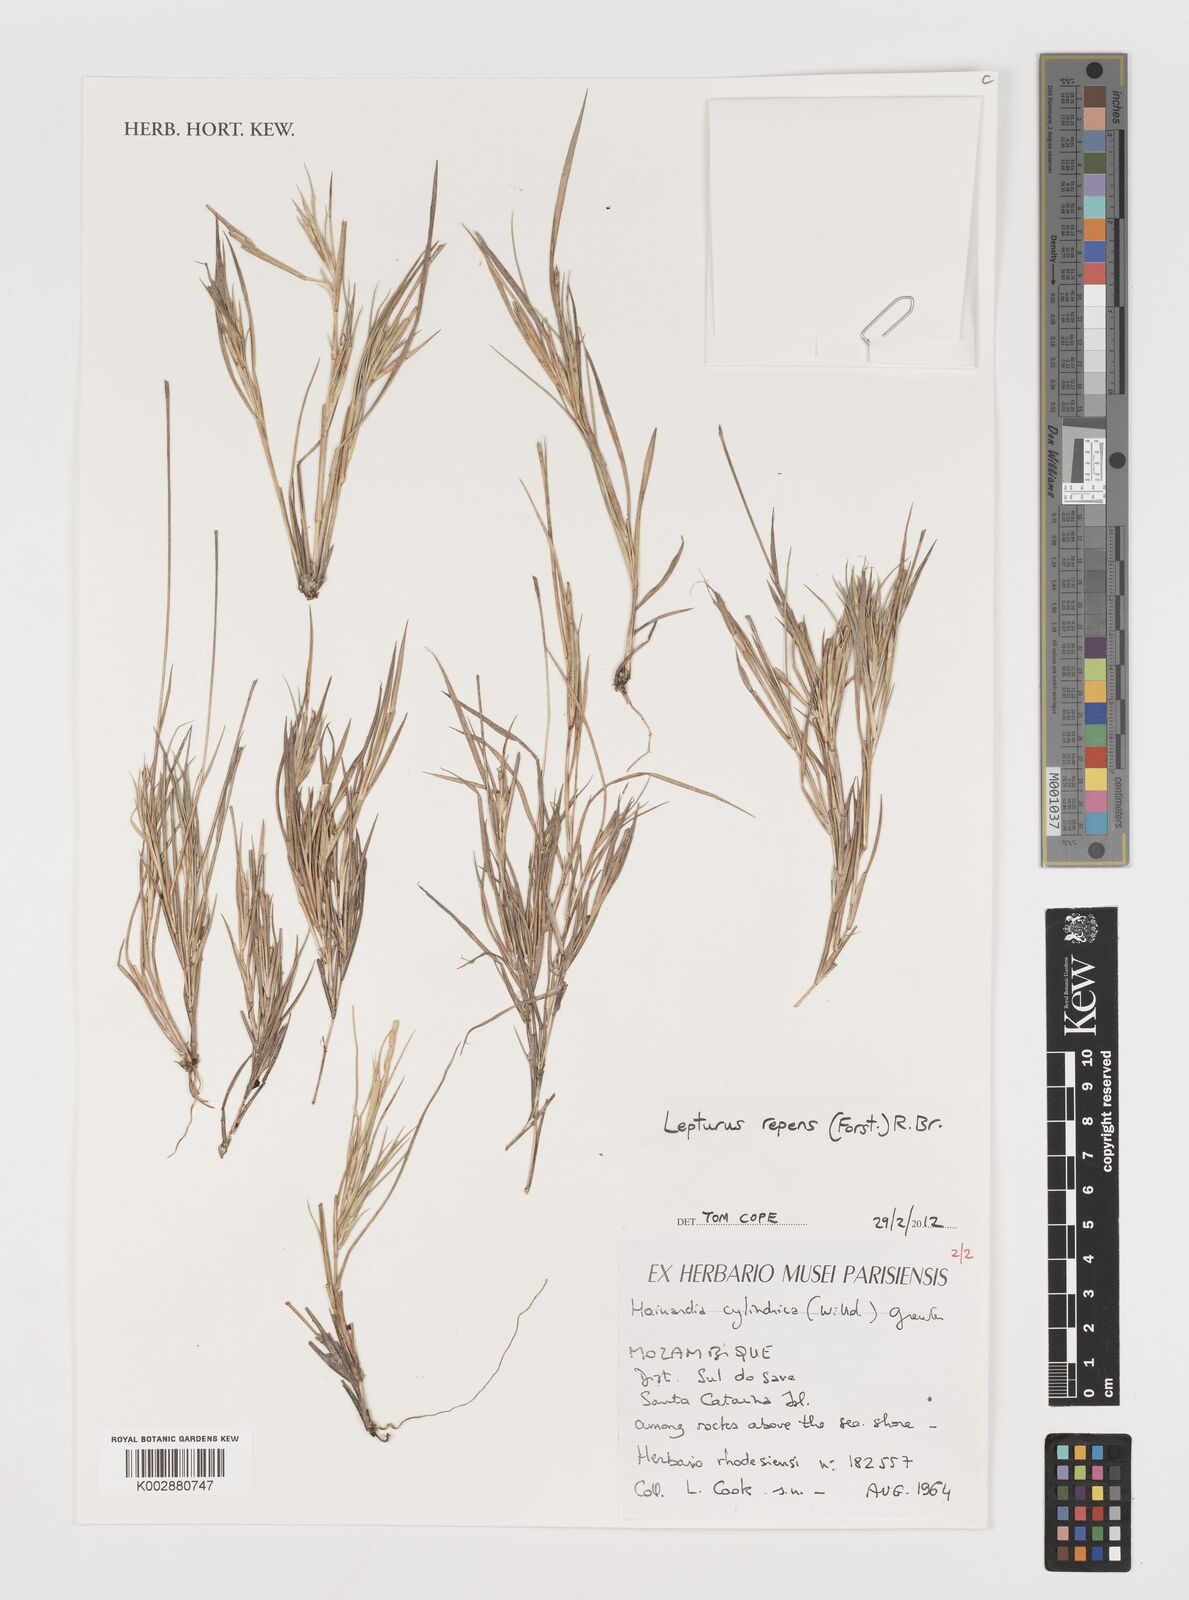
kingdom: Plantae
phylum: Tracheophyta
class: Liliopsida
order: Poales
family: Poaceae
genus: Lepturus
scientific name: Lepturus repens
